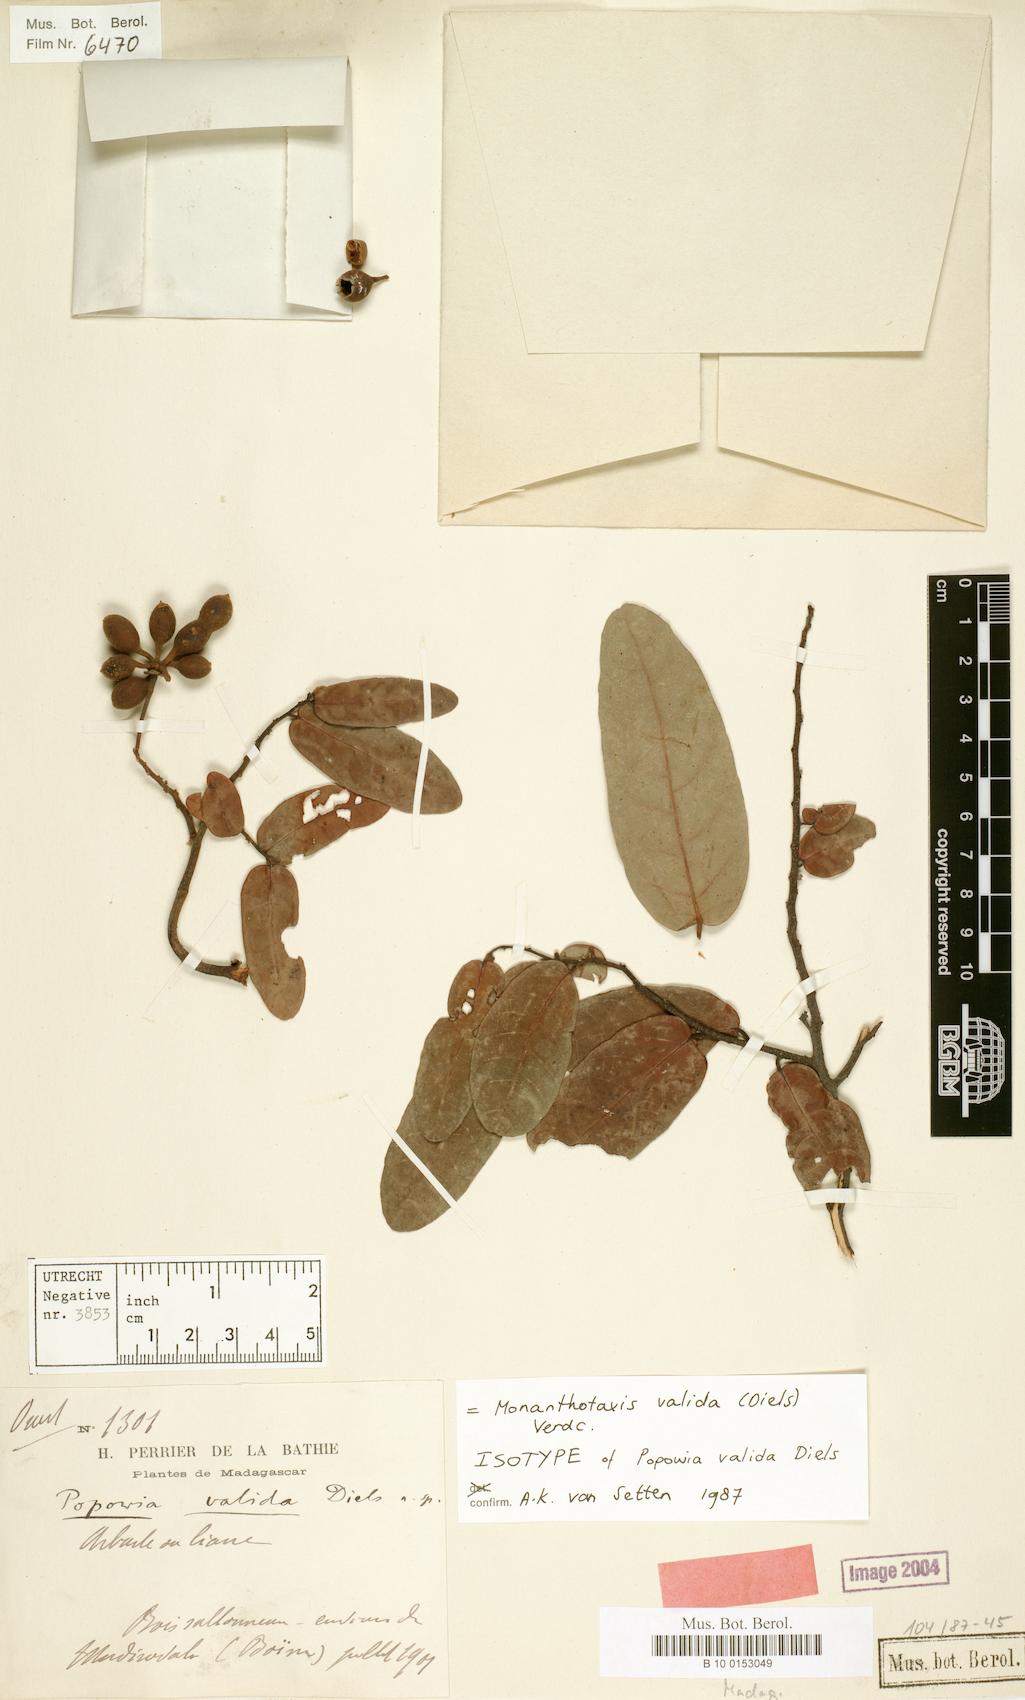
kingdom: Plantae
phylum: Tracheophyta
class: Magnoliopsida
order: Magnoliales
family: Annonaceae
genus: Monanthotaxis
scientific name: Monanthotaxis valida
